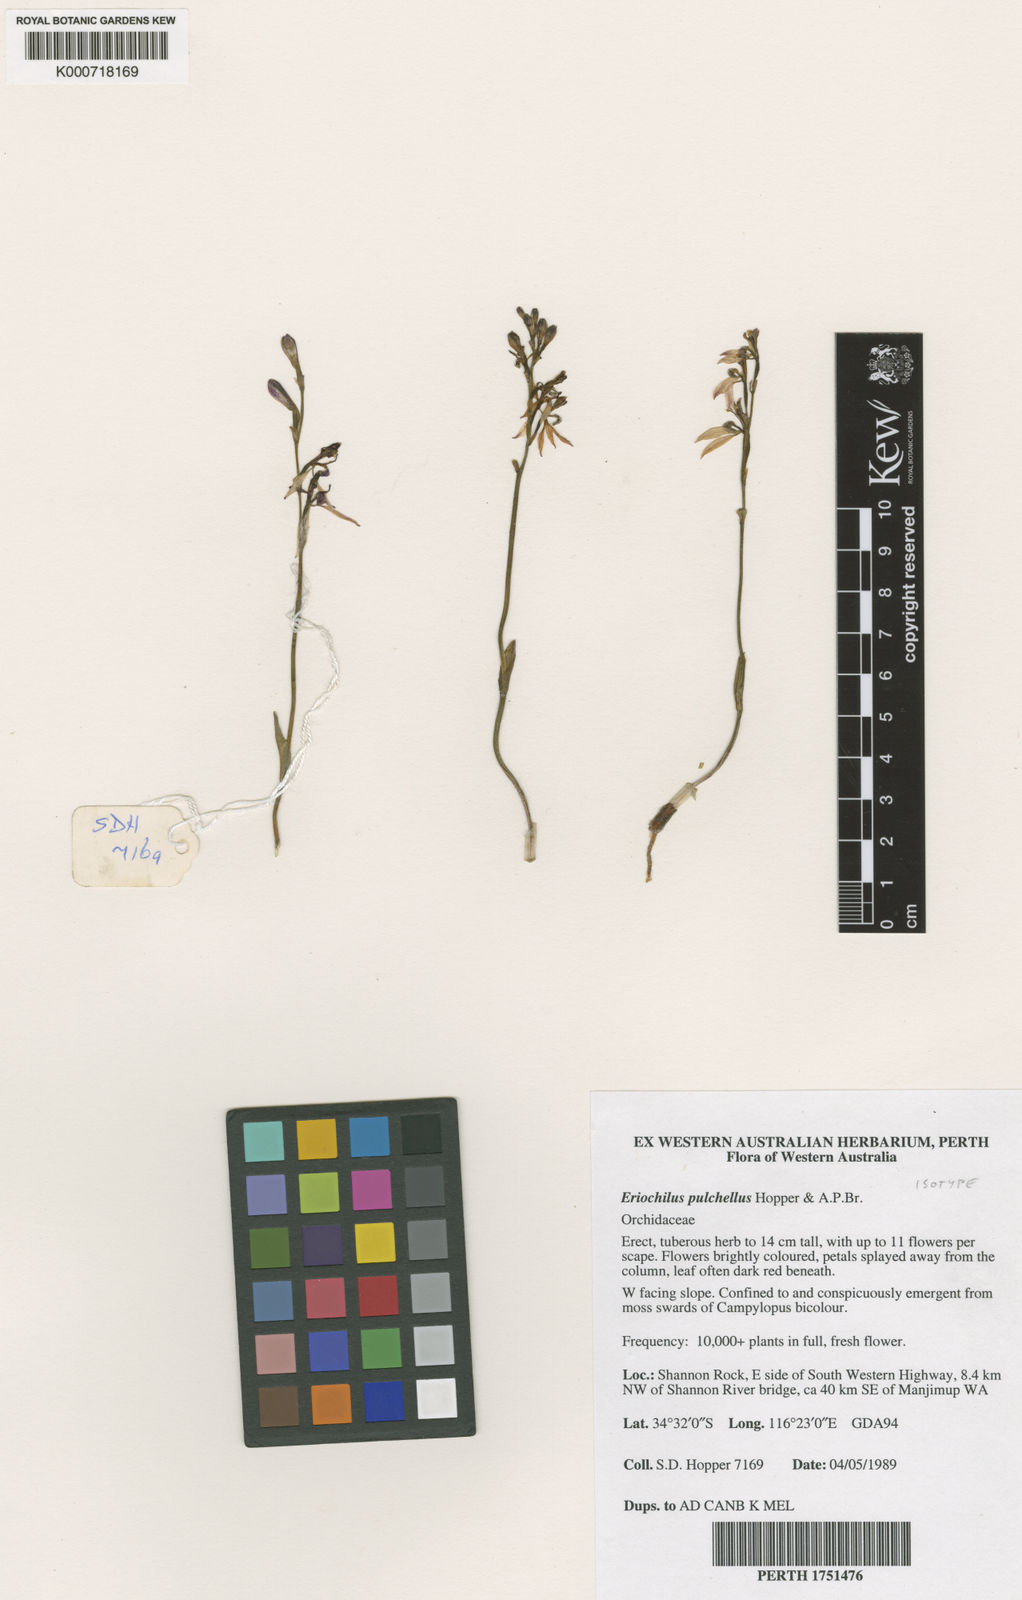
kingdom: Plantae
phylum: Tracheophyta
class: Liliopsida
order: Asparagales
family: Orchidaceae
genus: Eriochilus
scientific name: Eriochilus pulchellus
